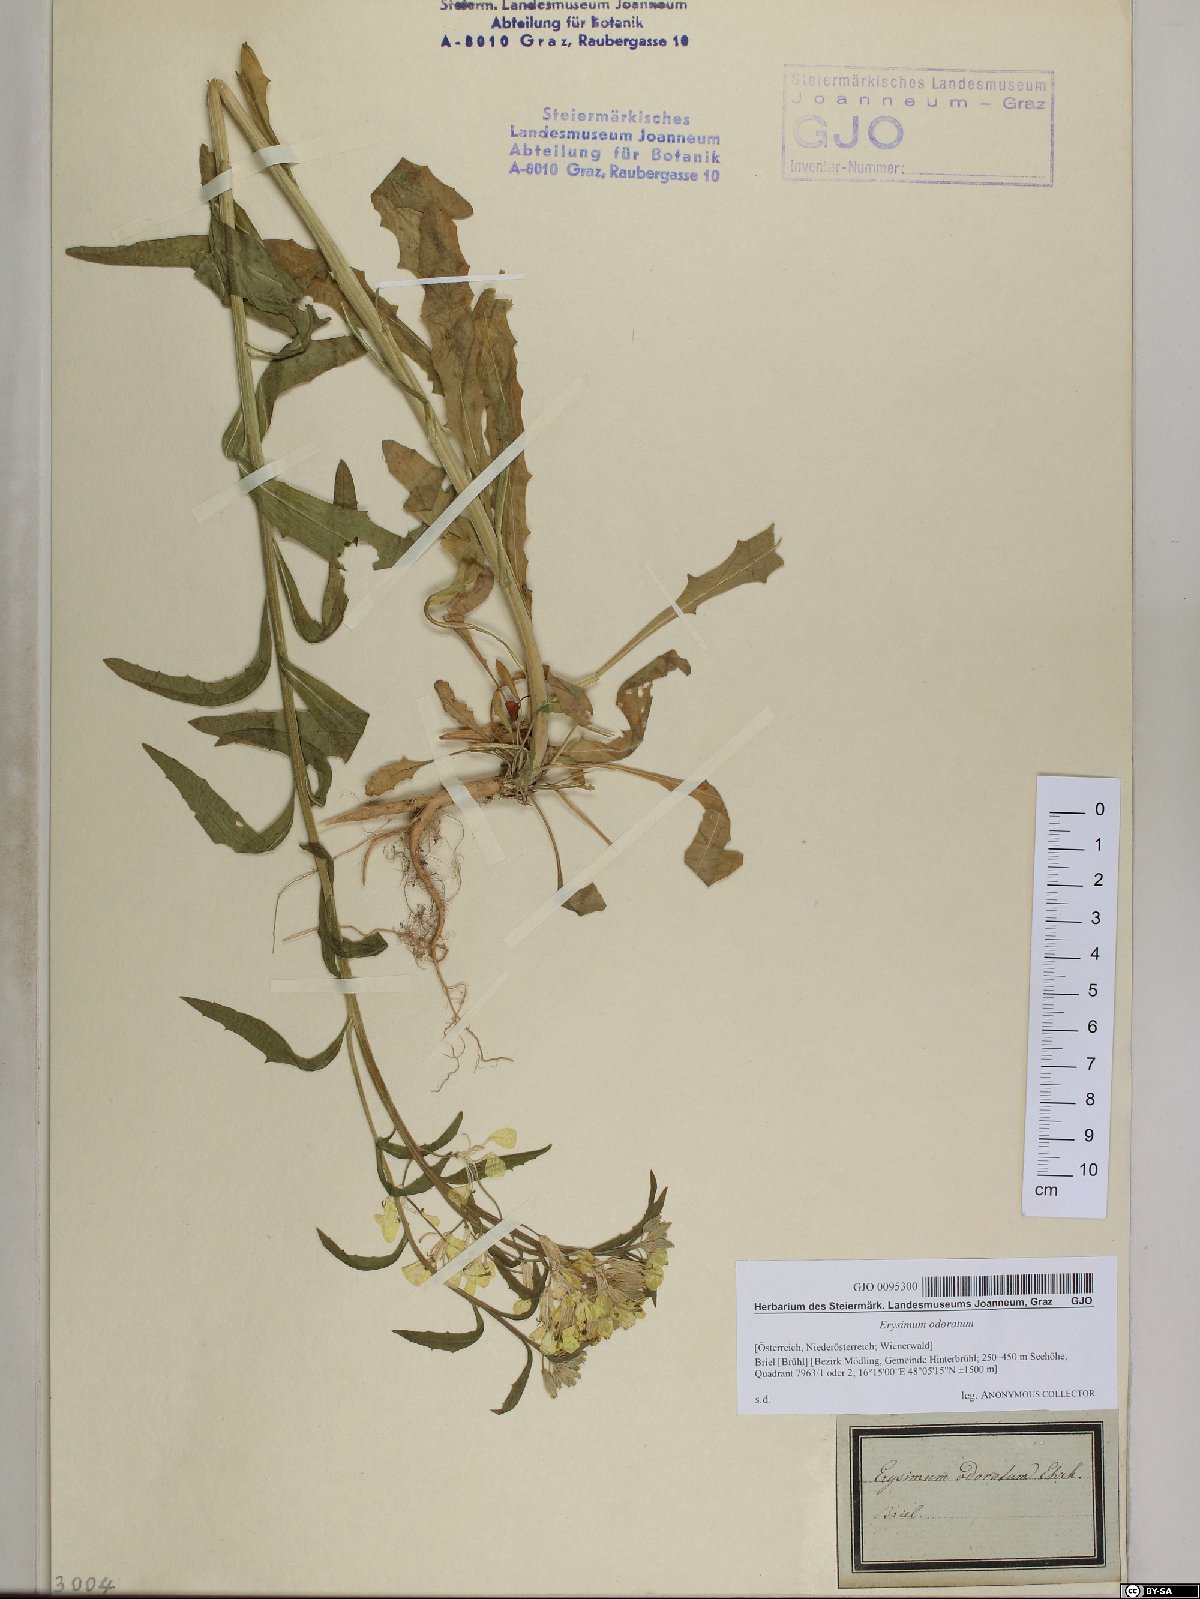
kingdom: Plantae
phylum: Tracheophyta
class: Magnoliopsida
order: Brassicales
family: Brassicaceae
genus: Erysimum
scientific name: Erysimum odoratum
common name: Smelly wallflower
